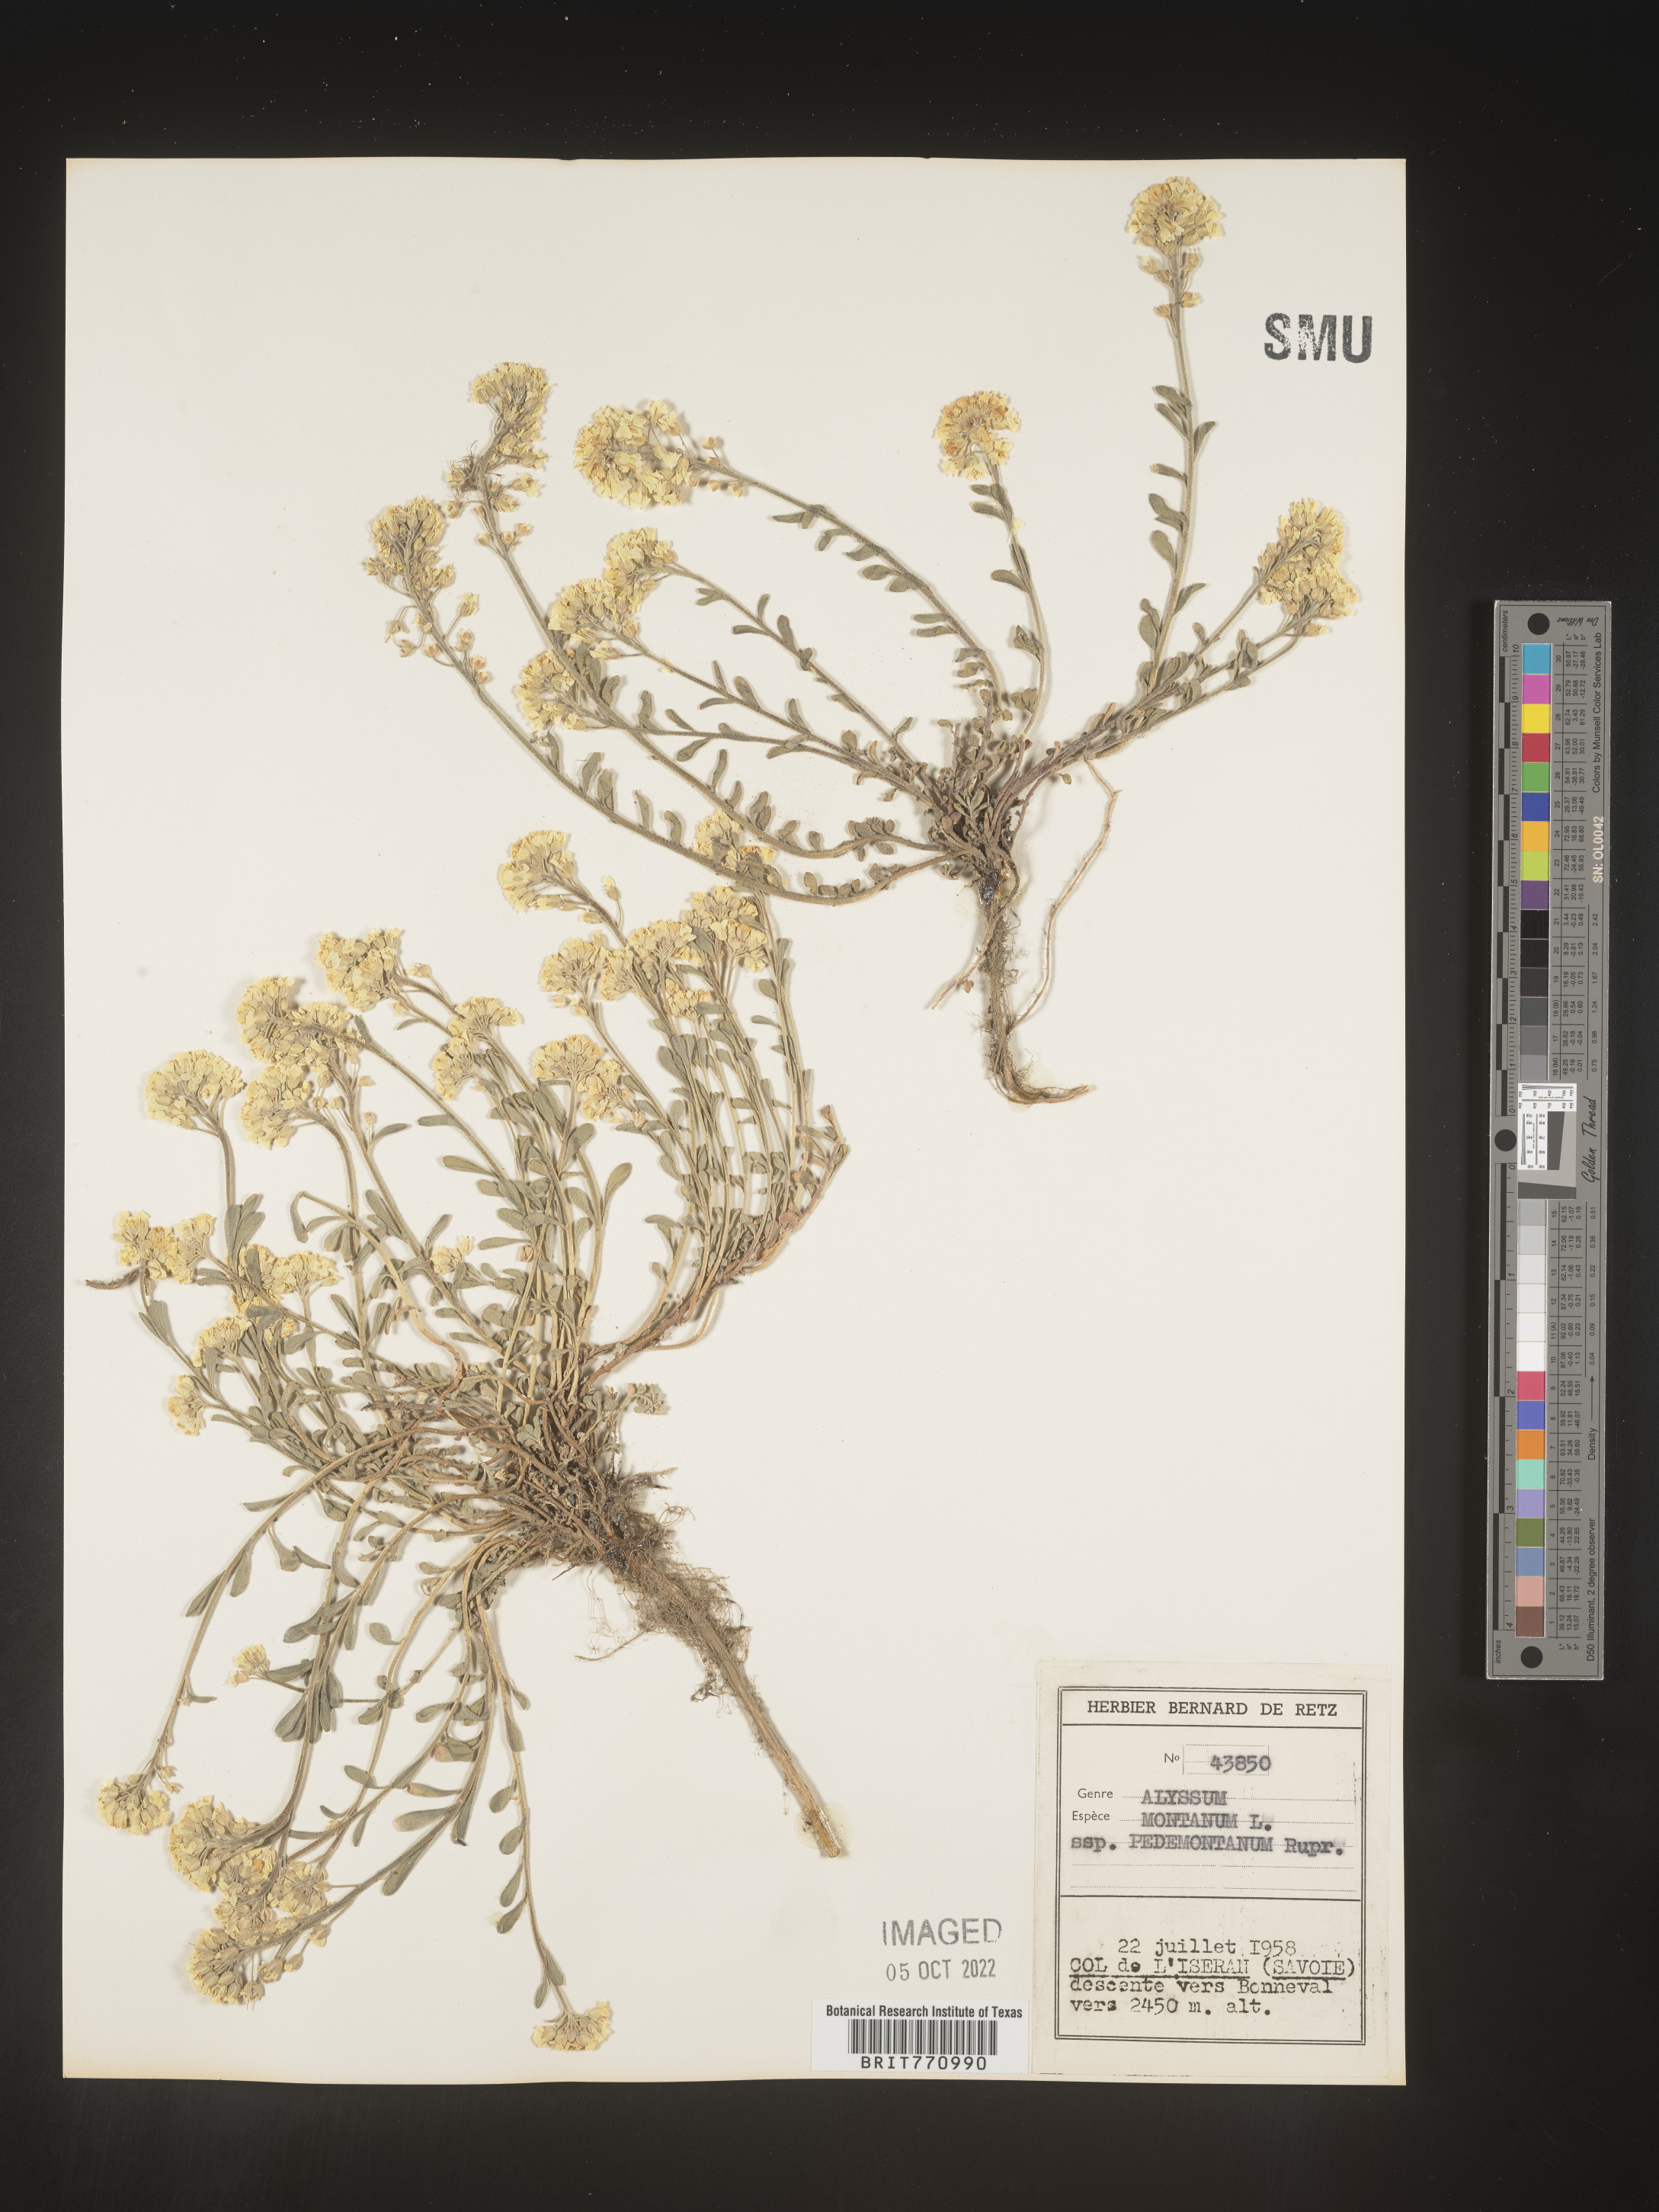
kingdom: Plantae
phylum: Tracheophyta
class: Magnoliopsida
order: Brassicales
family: Brassicaceae
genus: Alyssum
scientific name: Alyssum
